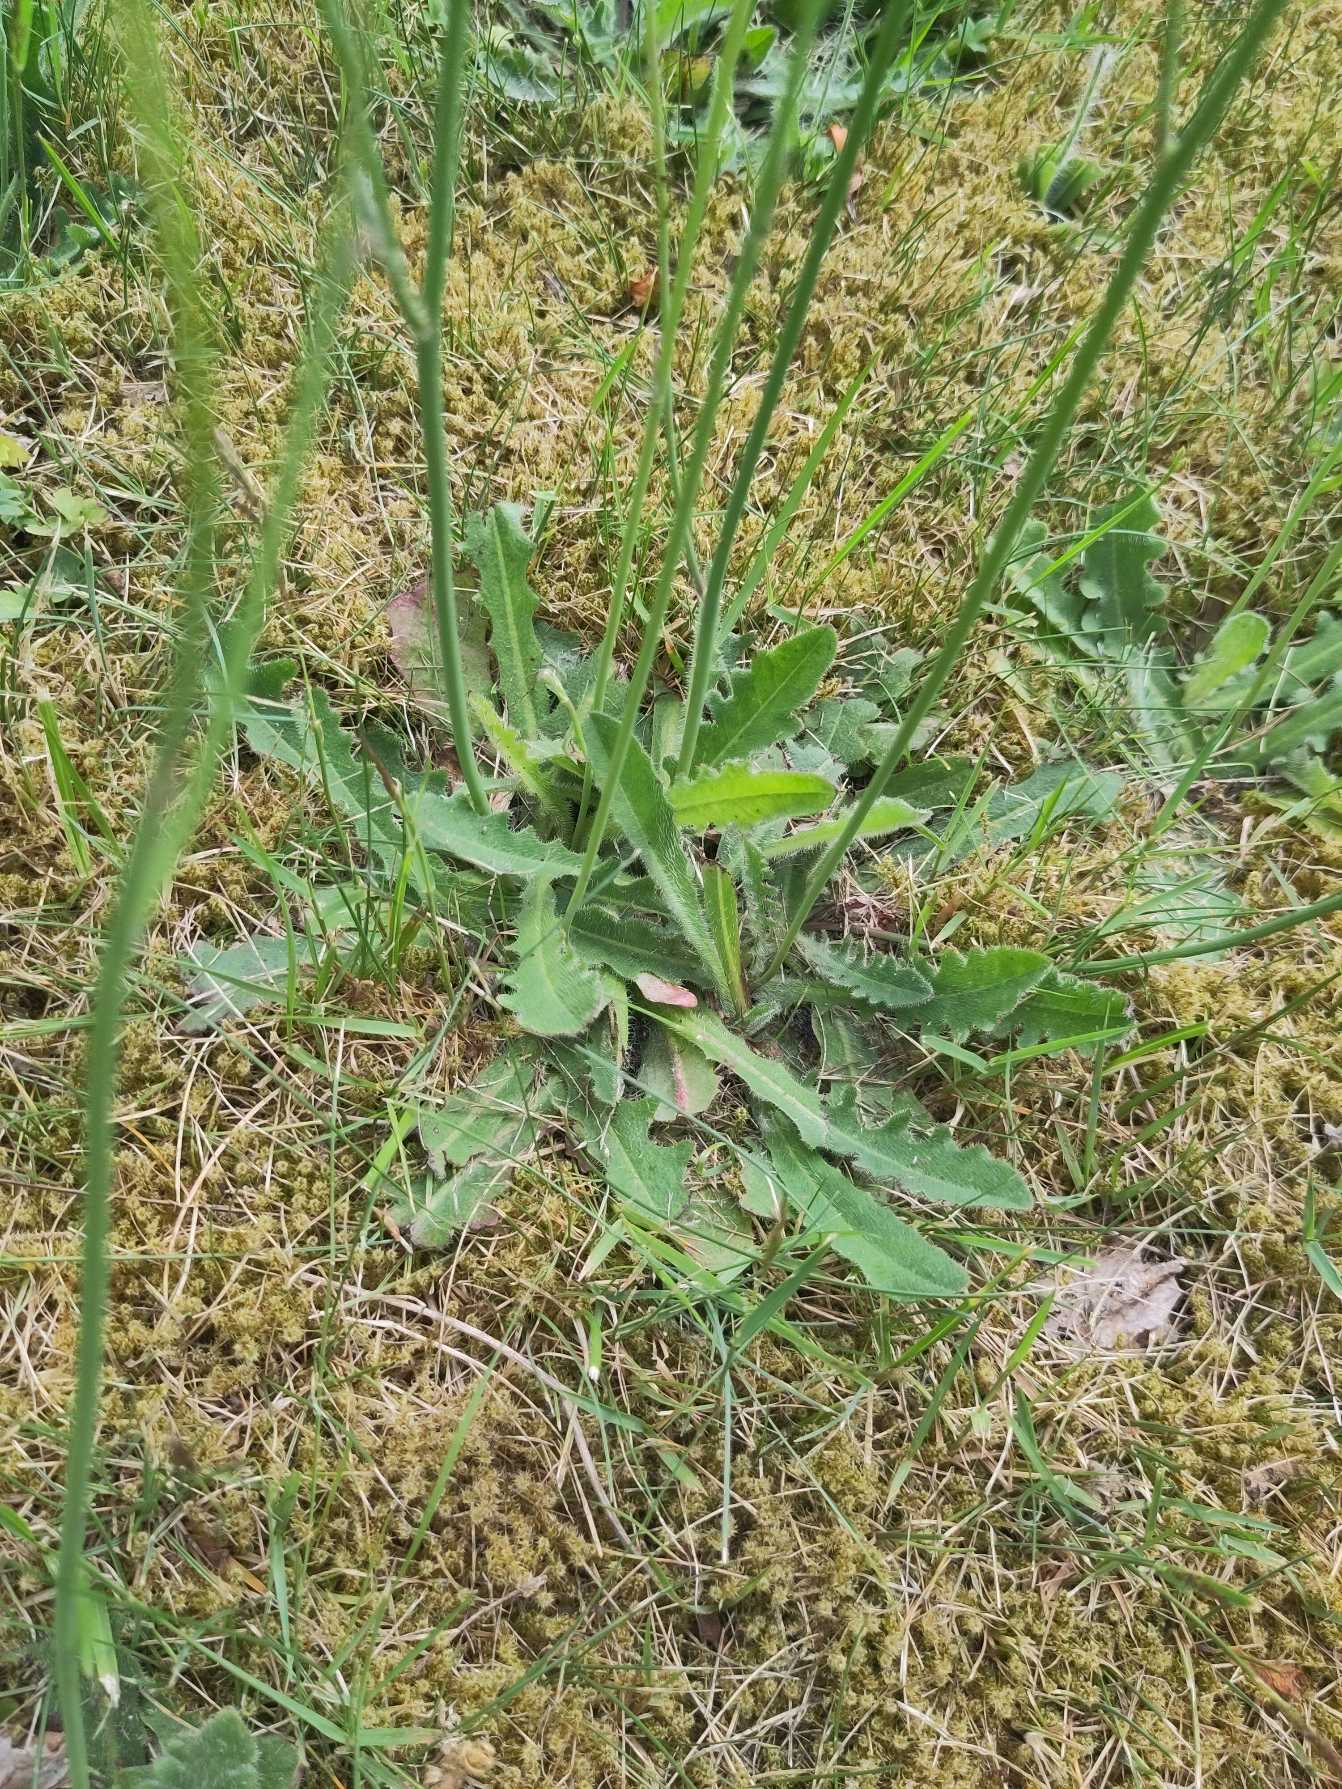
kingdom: Plantae
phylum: Tracheophyta
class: Magnoliopsida
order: Asterales
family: Asteraceae
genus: Hypochaeris
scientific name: Hypochaeris radicata
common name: Almindelig kongepen
